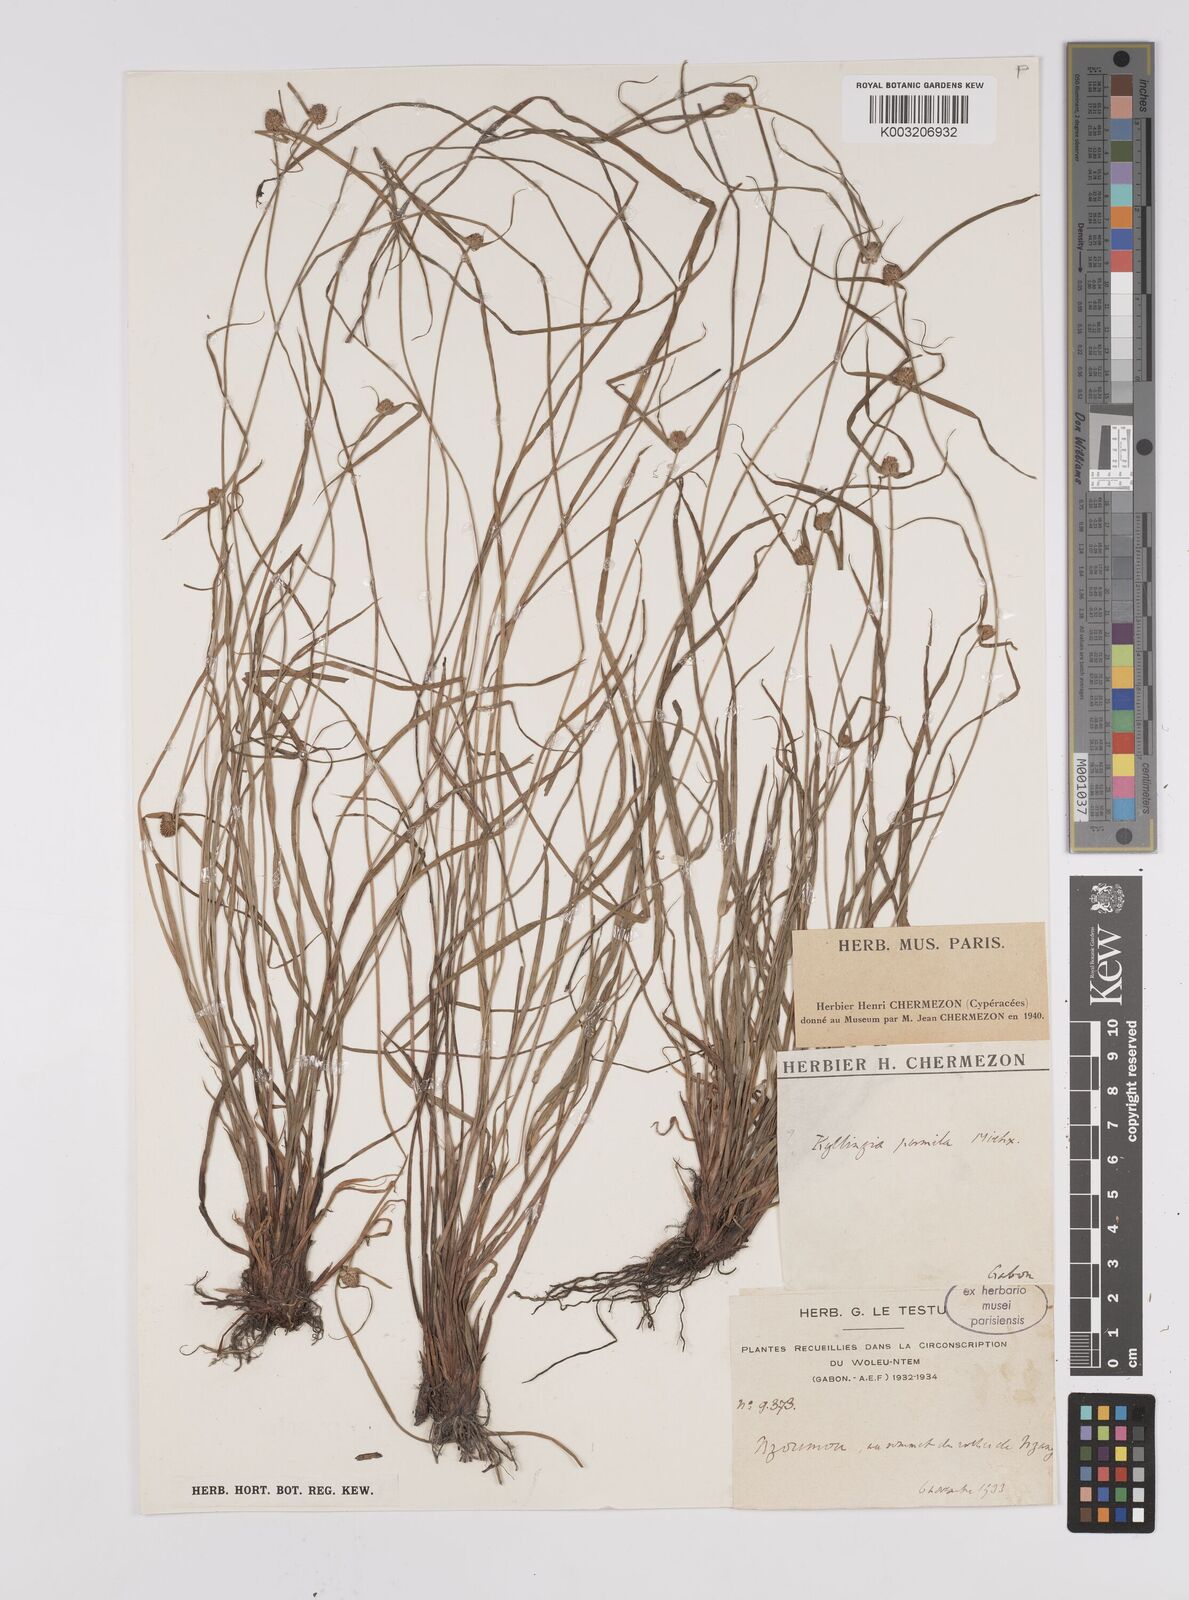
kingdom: Plantae
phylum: Tracheophyta
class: Liliopsida
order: Poales
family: Cyperaceae
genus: Cyperus
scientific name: Cyperus hortensis
